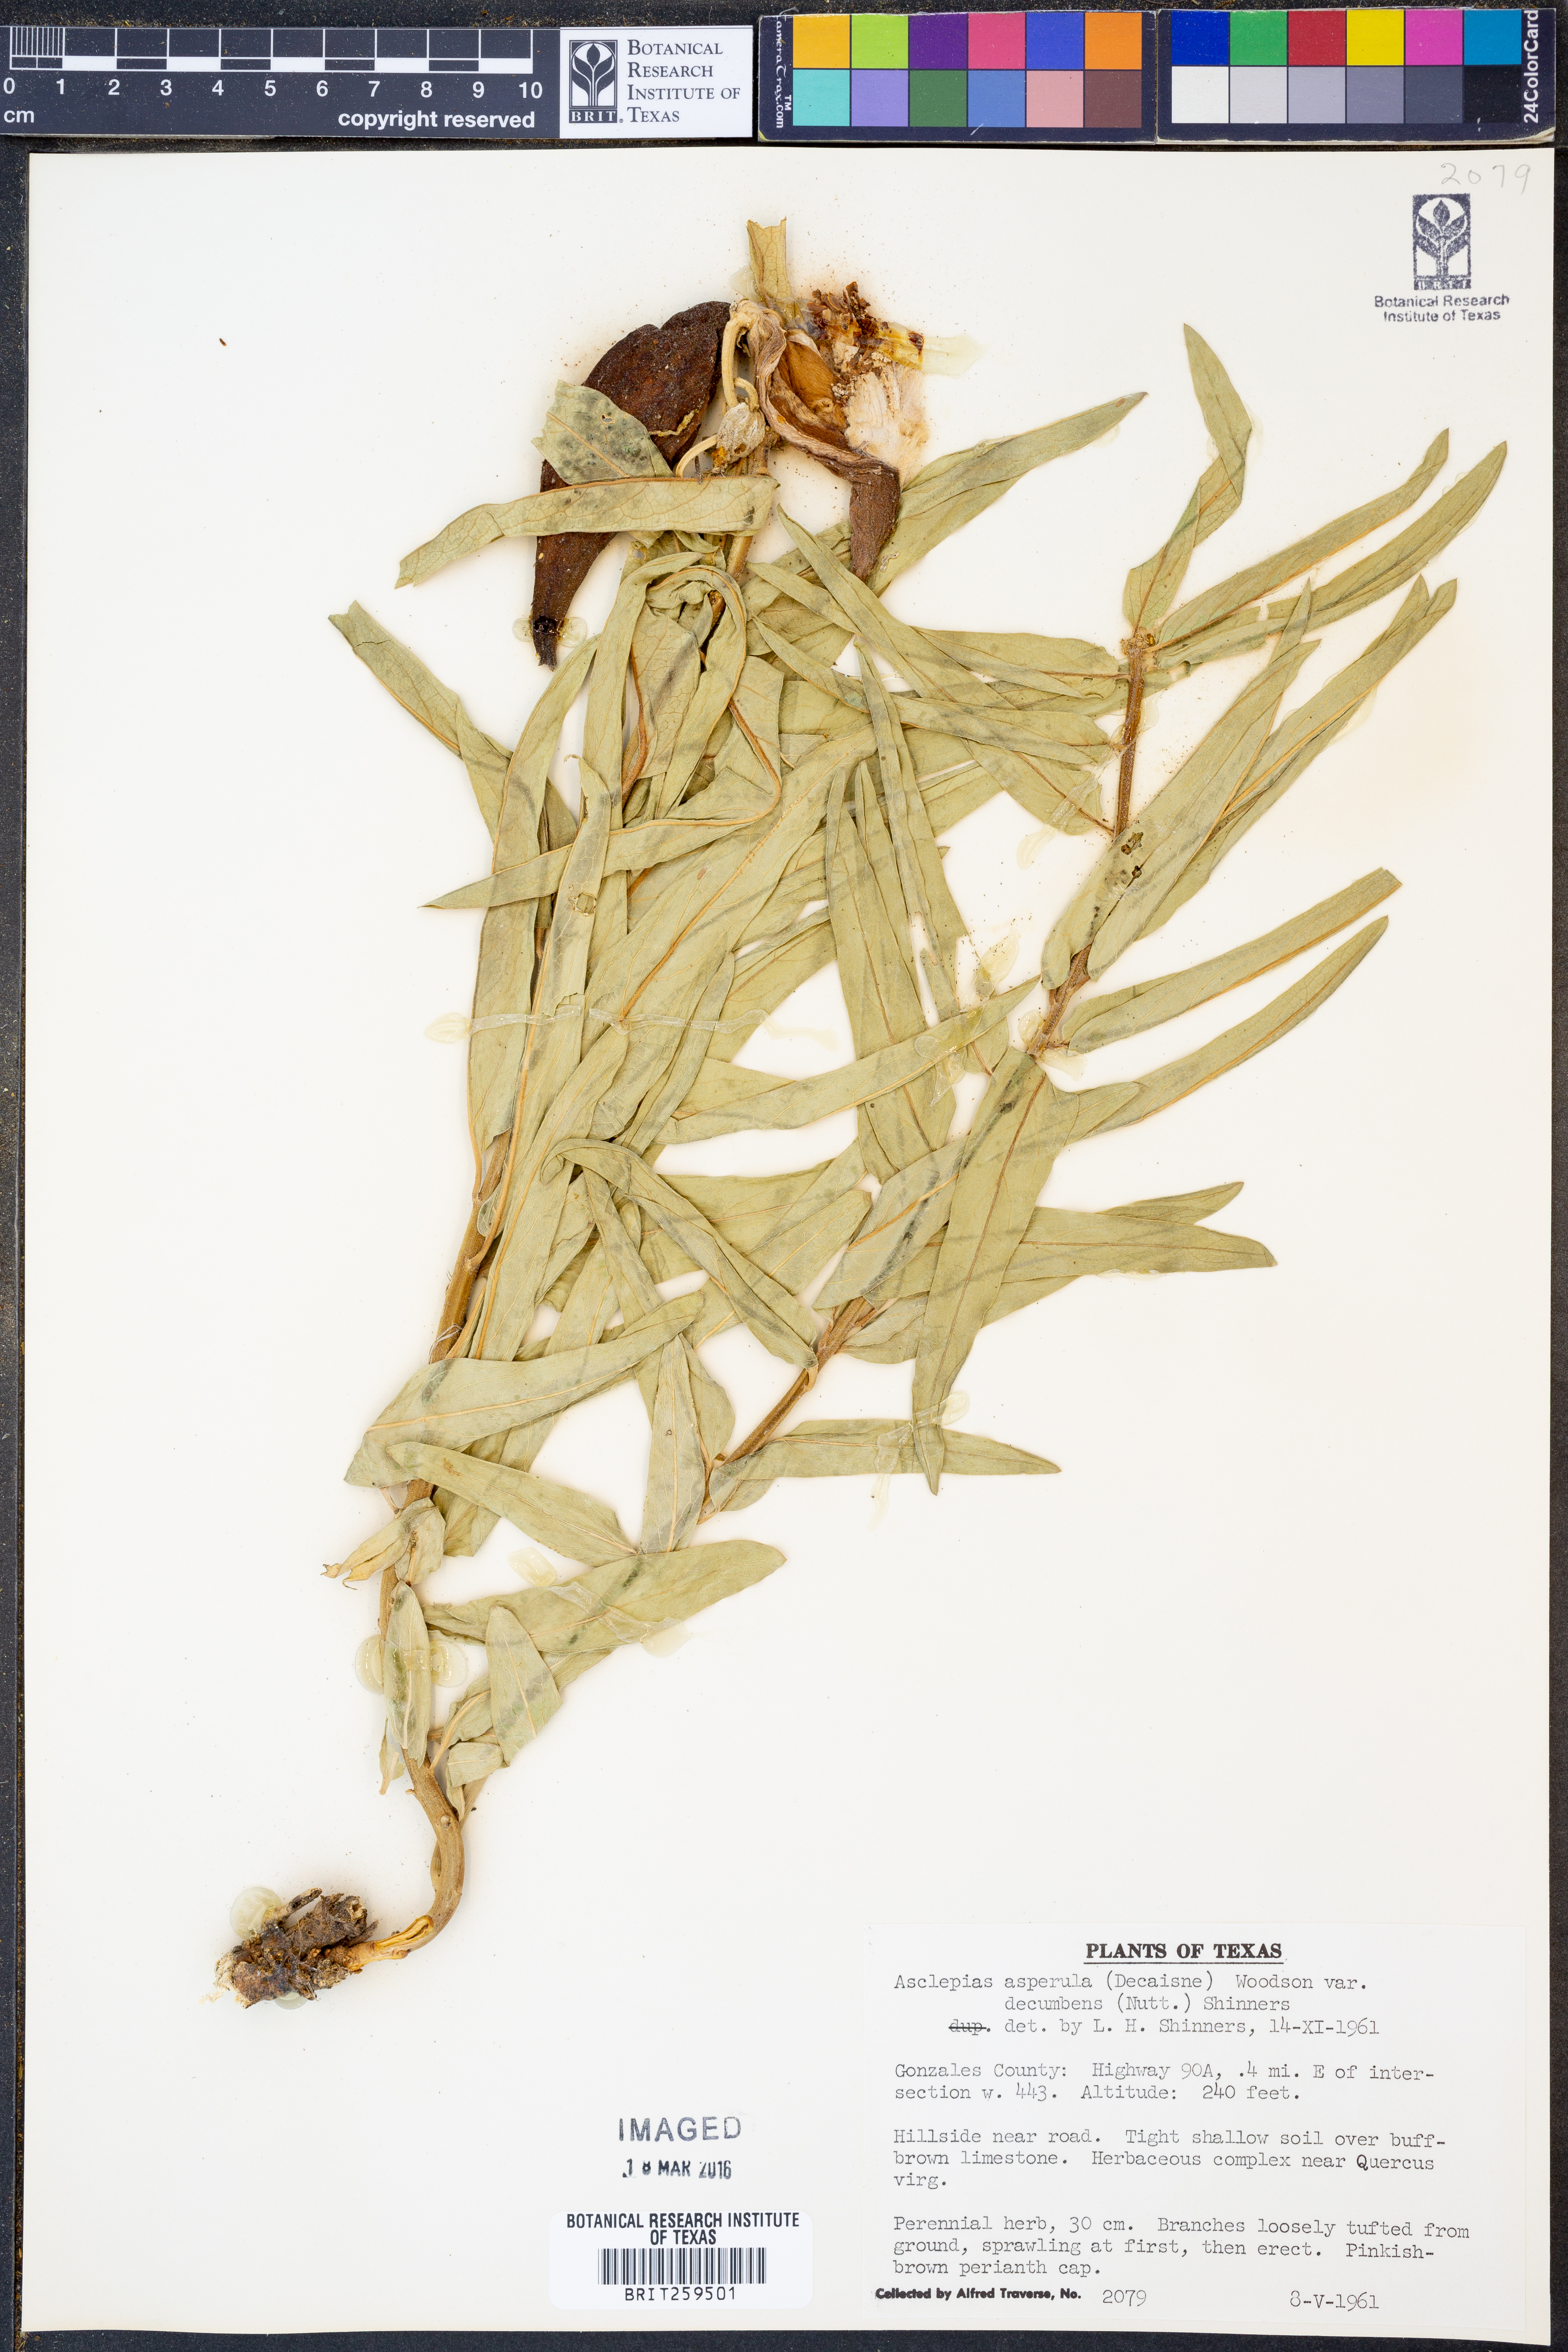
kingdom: Plantae
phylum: Tracheophyta
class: Magnoliopsida
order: Gentianales
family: Apocynaceae
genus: Asclepias
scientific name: Asclepias asperula
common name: Antelope horns
